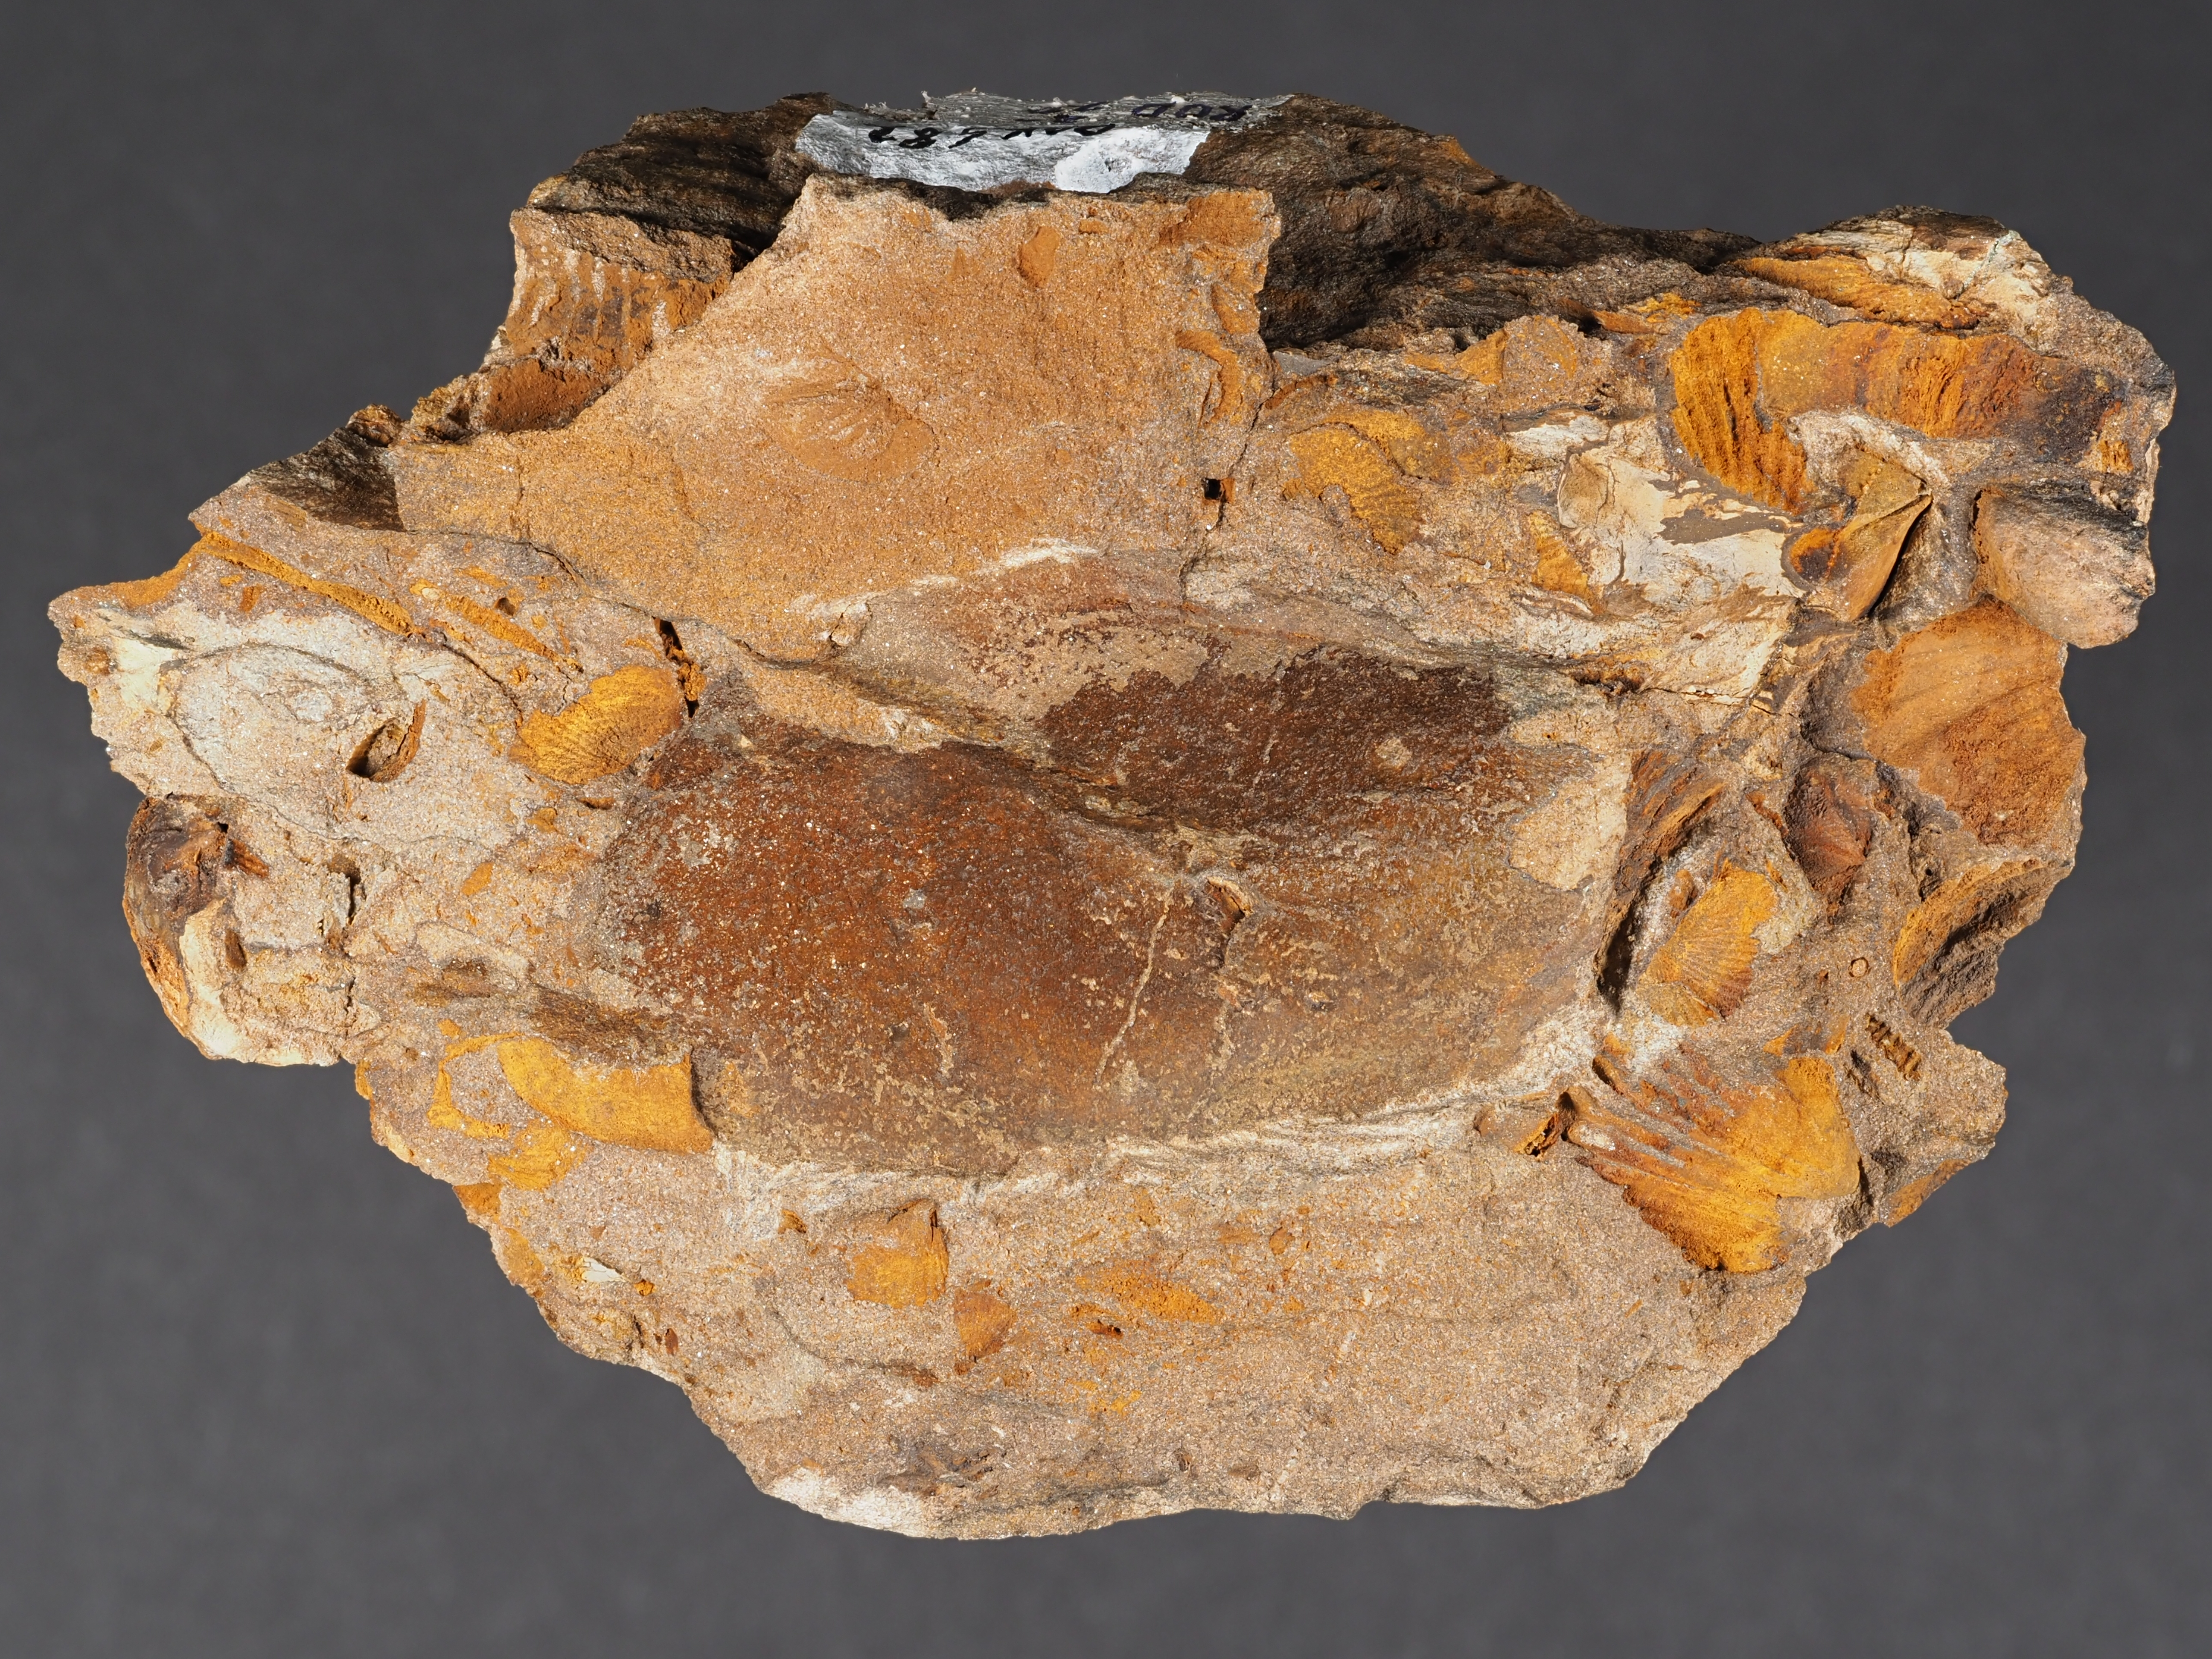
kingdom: Animalia
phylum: Brachiopoda
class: Rhynchonellata
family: Cyrtinidae
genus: Cyrtina
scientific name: Cyrtina
